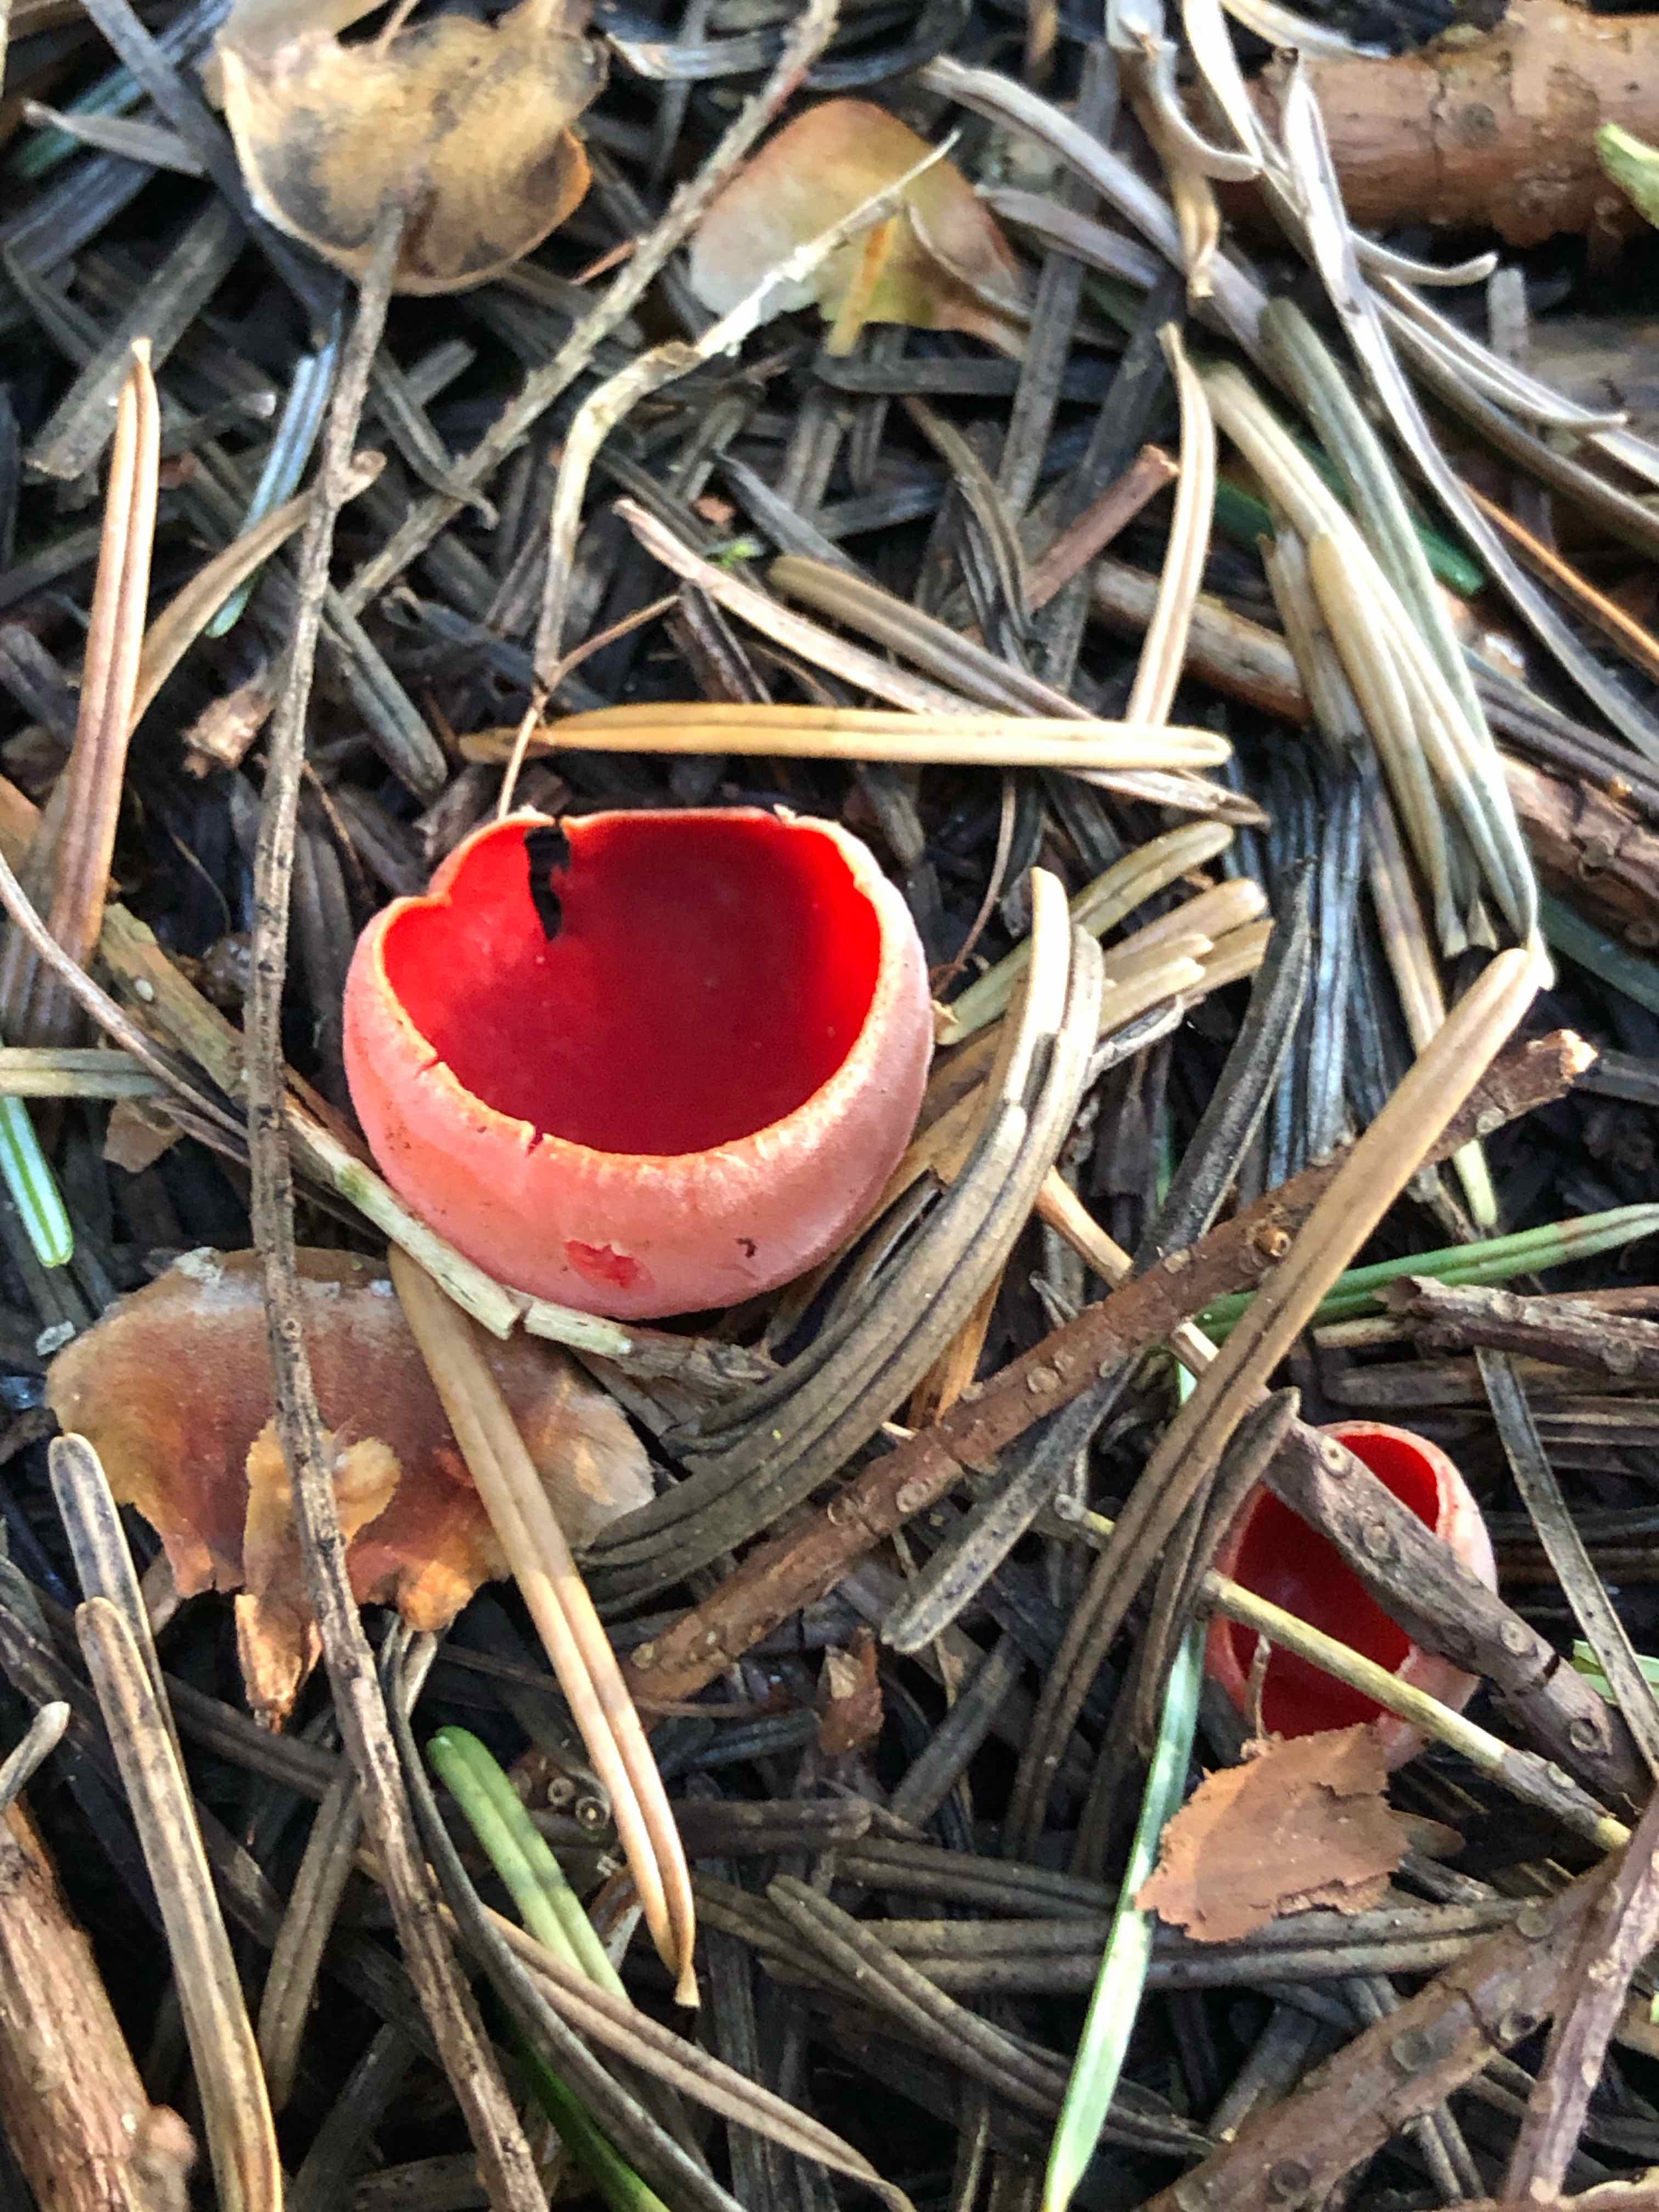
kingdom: Fungi
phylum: Ascomycota
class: Pezizomycetes
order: Pezizales
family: Sarcoscyphaceae
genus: Sarcoscypha
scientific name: Sarcoscypha austriaca
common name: krølhåret pragtbæger
